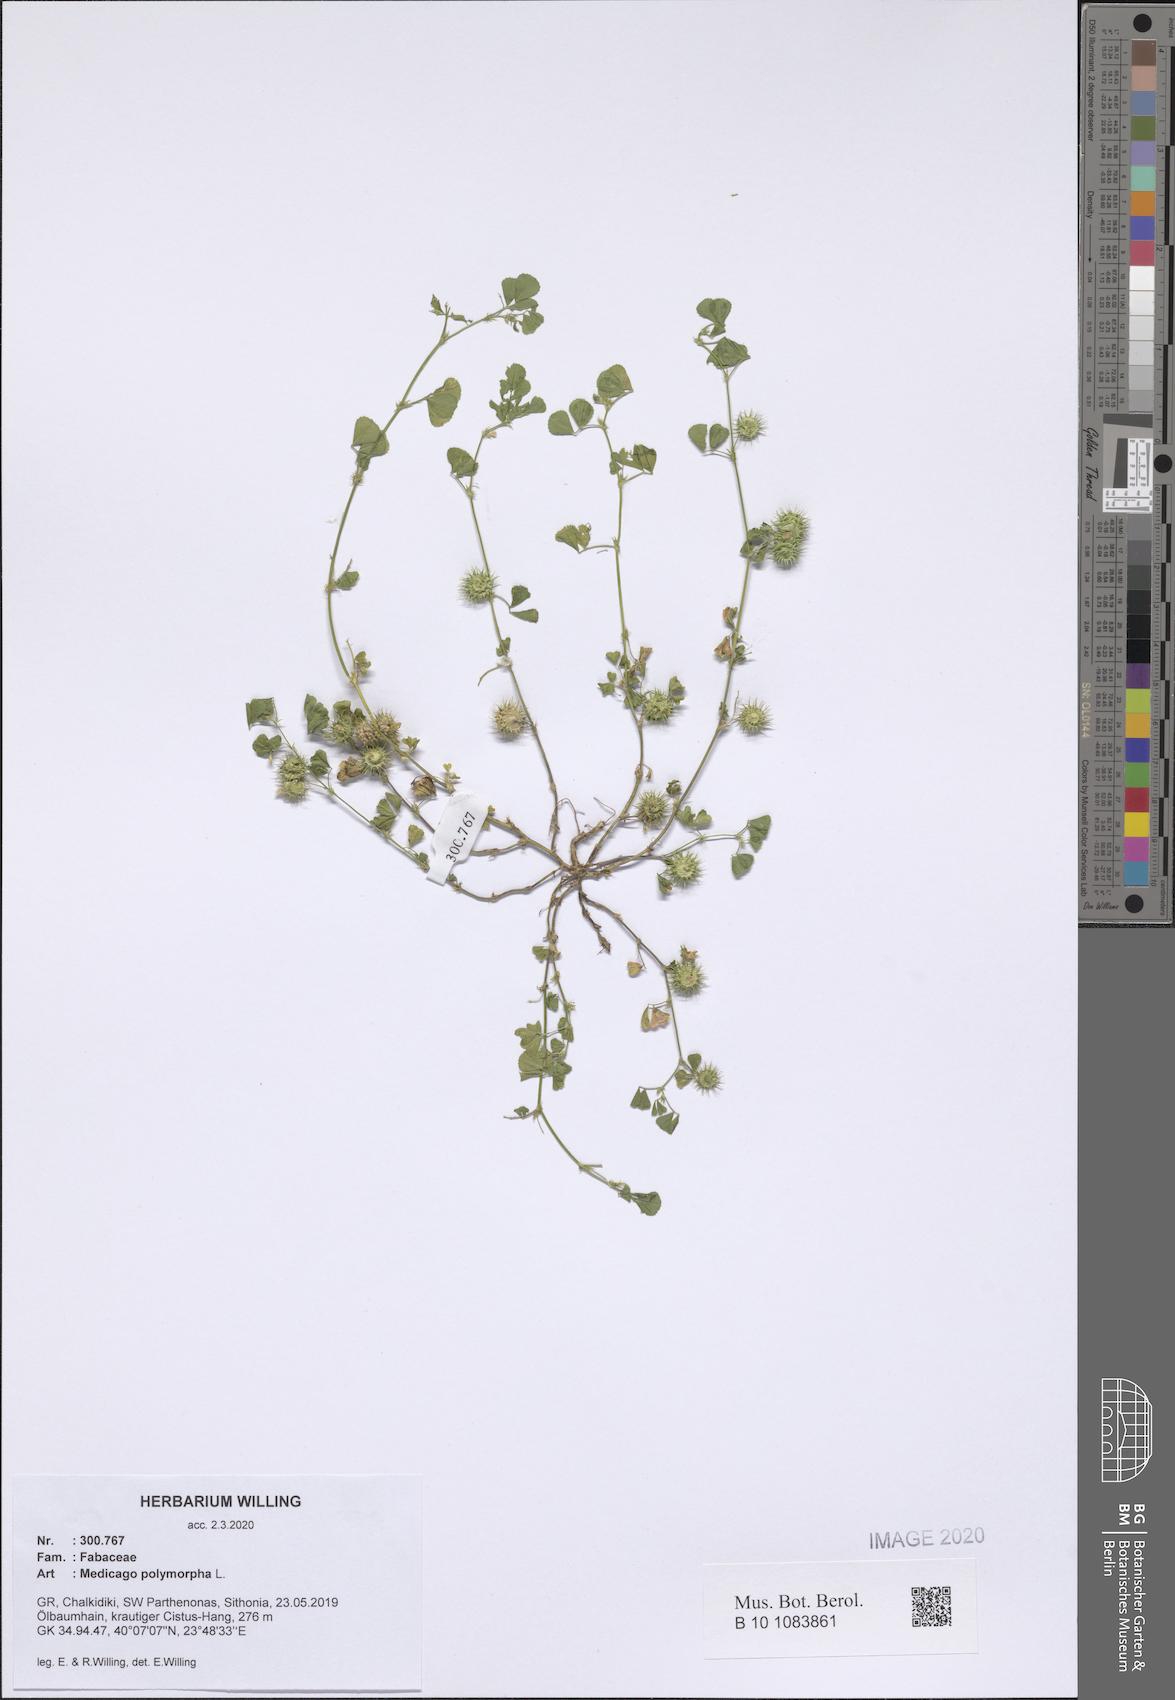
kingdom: Plantae
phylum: Tracheophyta
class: Magnoliopsida
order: Fabales
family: Fabaceae
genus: Medicago
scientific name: Medicago polymorpha
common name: Burclover
